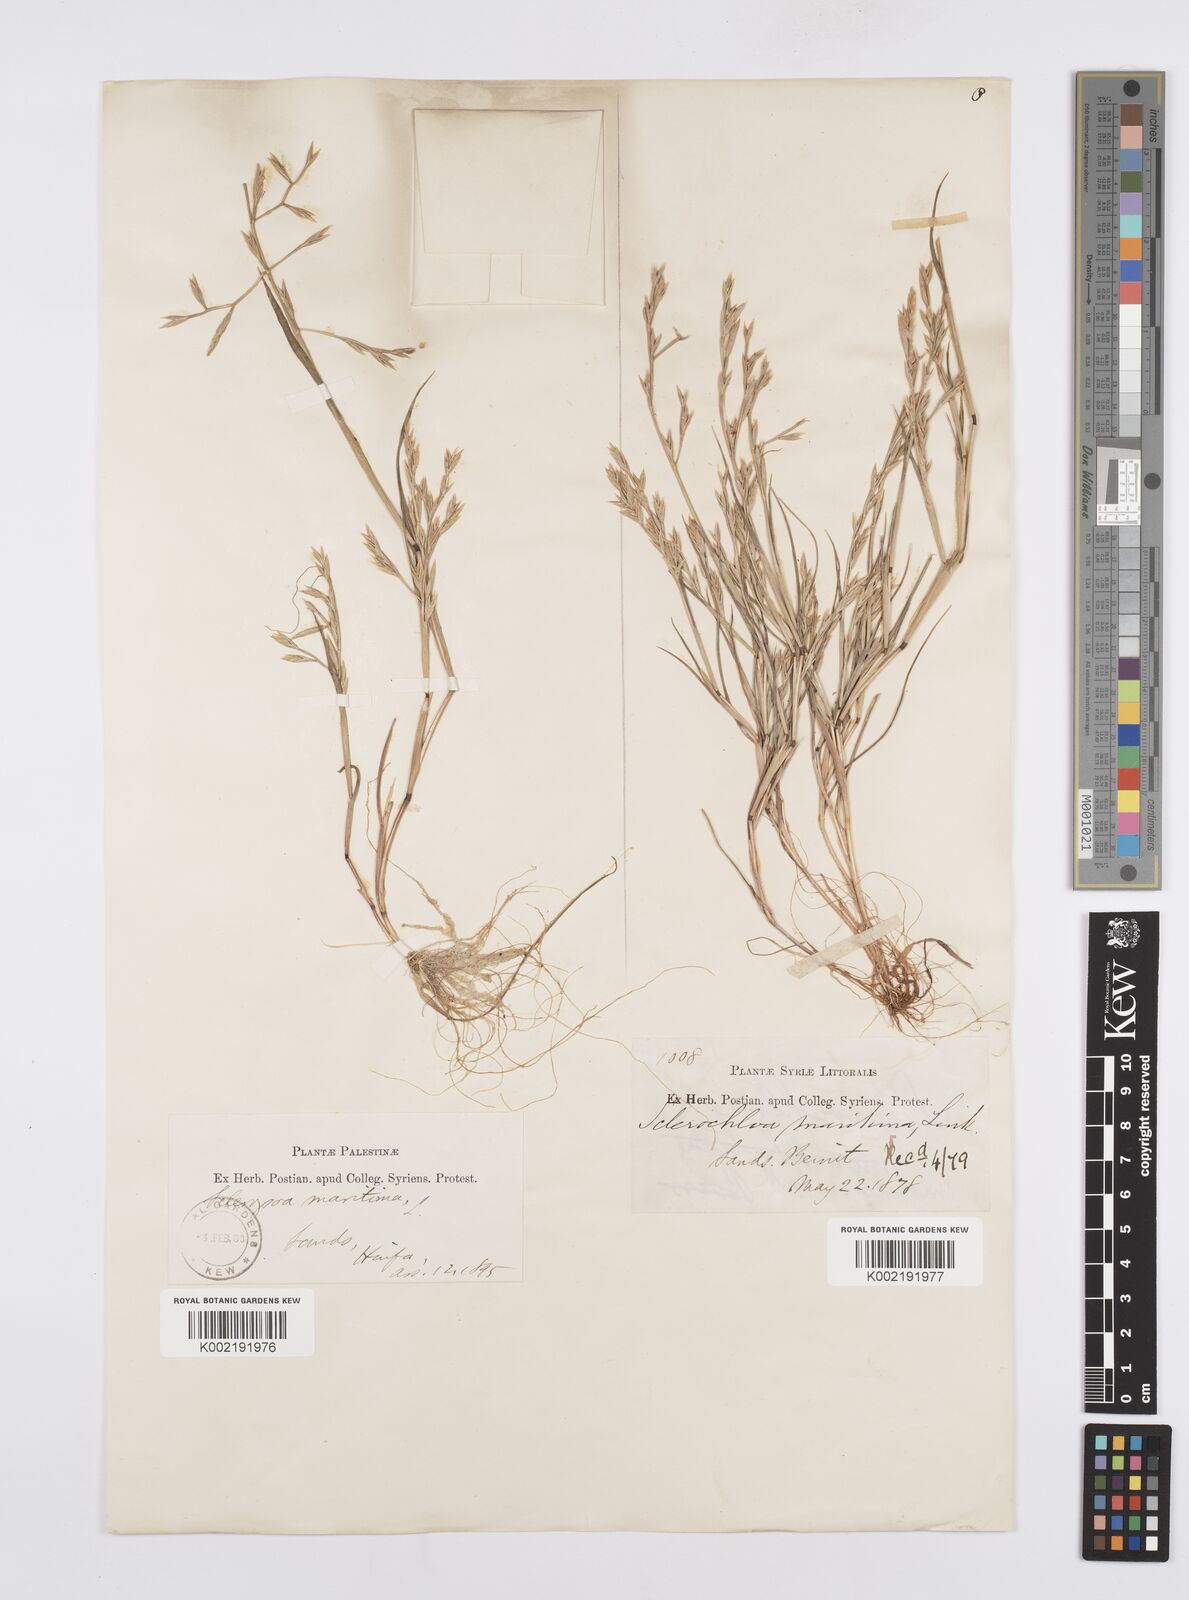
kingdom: Plantae
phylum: Tracheophyta
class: Liliopsida
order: Poales
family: Poaceae
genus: Cutandia
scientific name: Cutandia maritima
